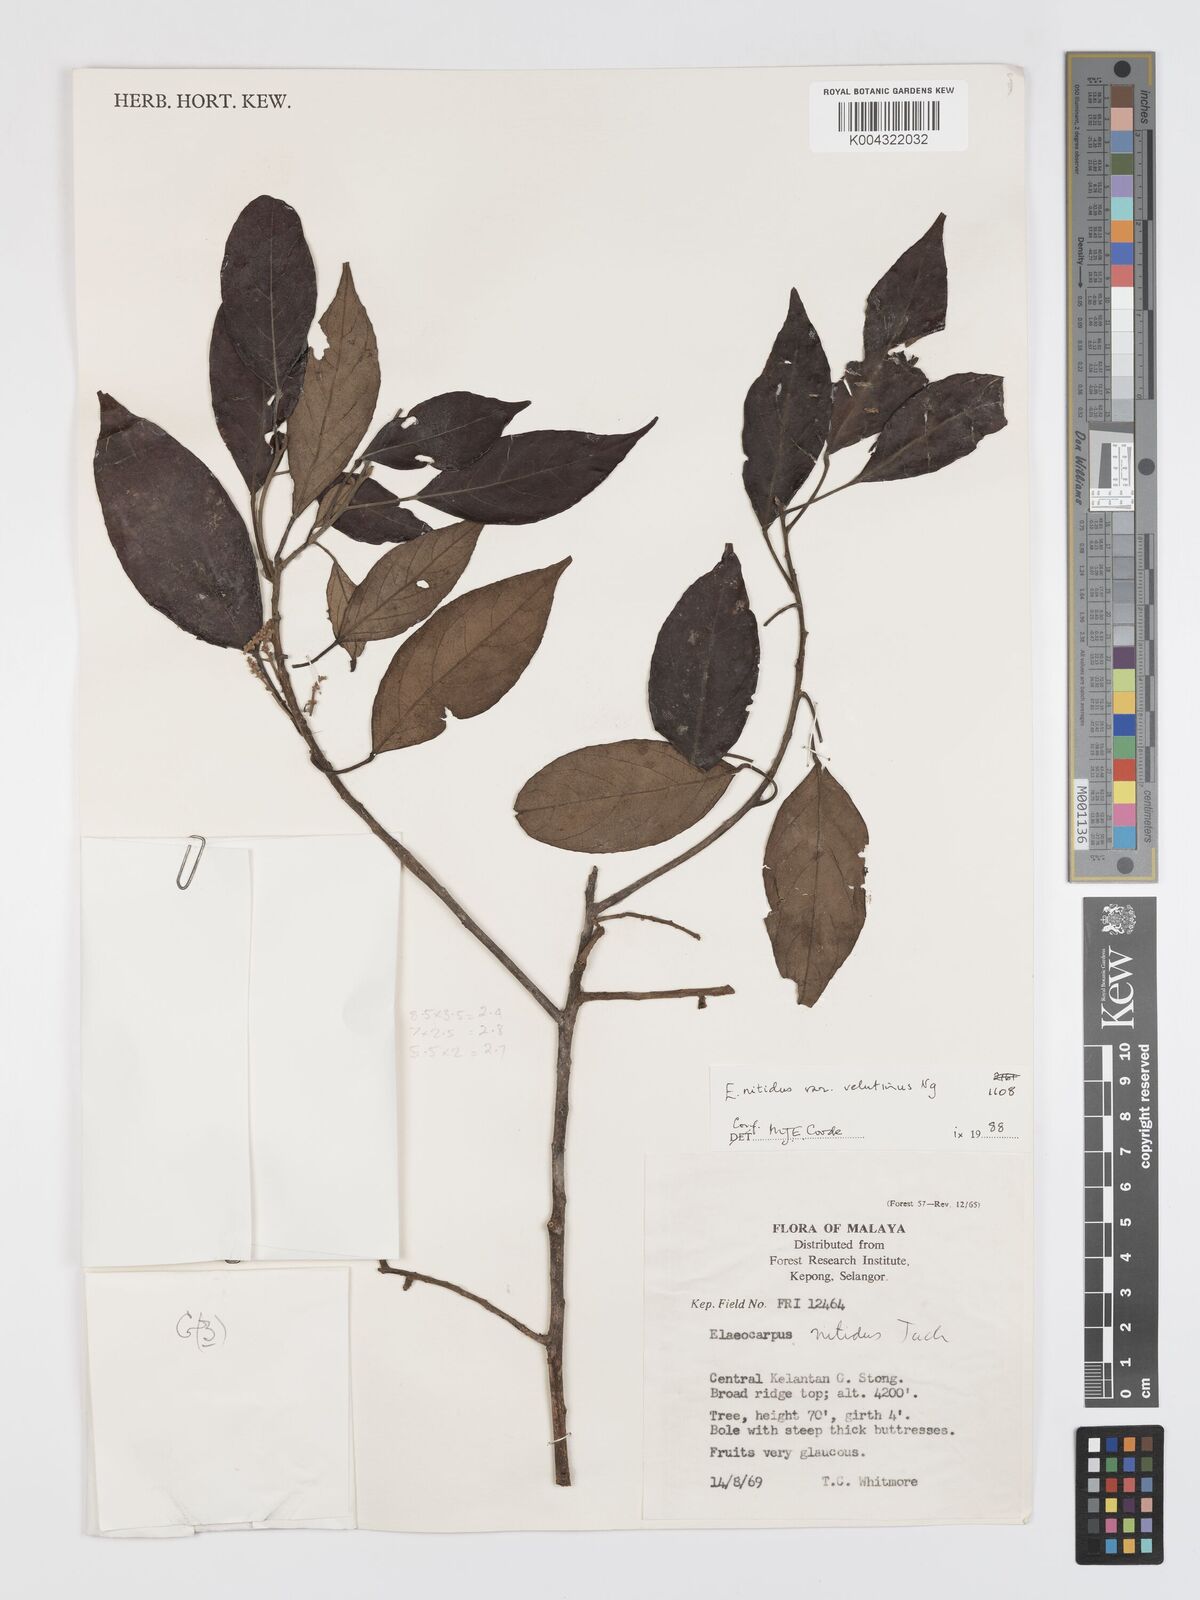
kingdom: Plantae
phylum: Tracheophyta
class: Magnoliopsida
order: Oxalidales
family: Elaeocarpaceae
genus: Elaeocarpus
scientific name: Elaeocarpus nitidus
